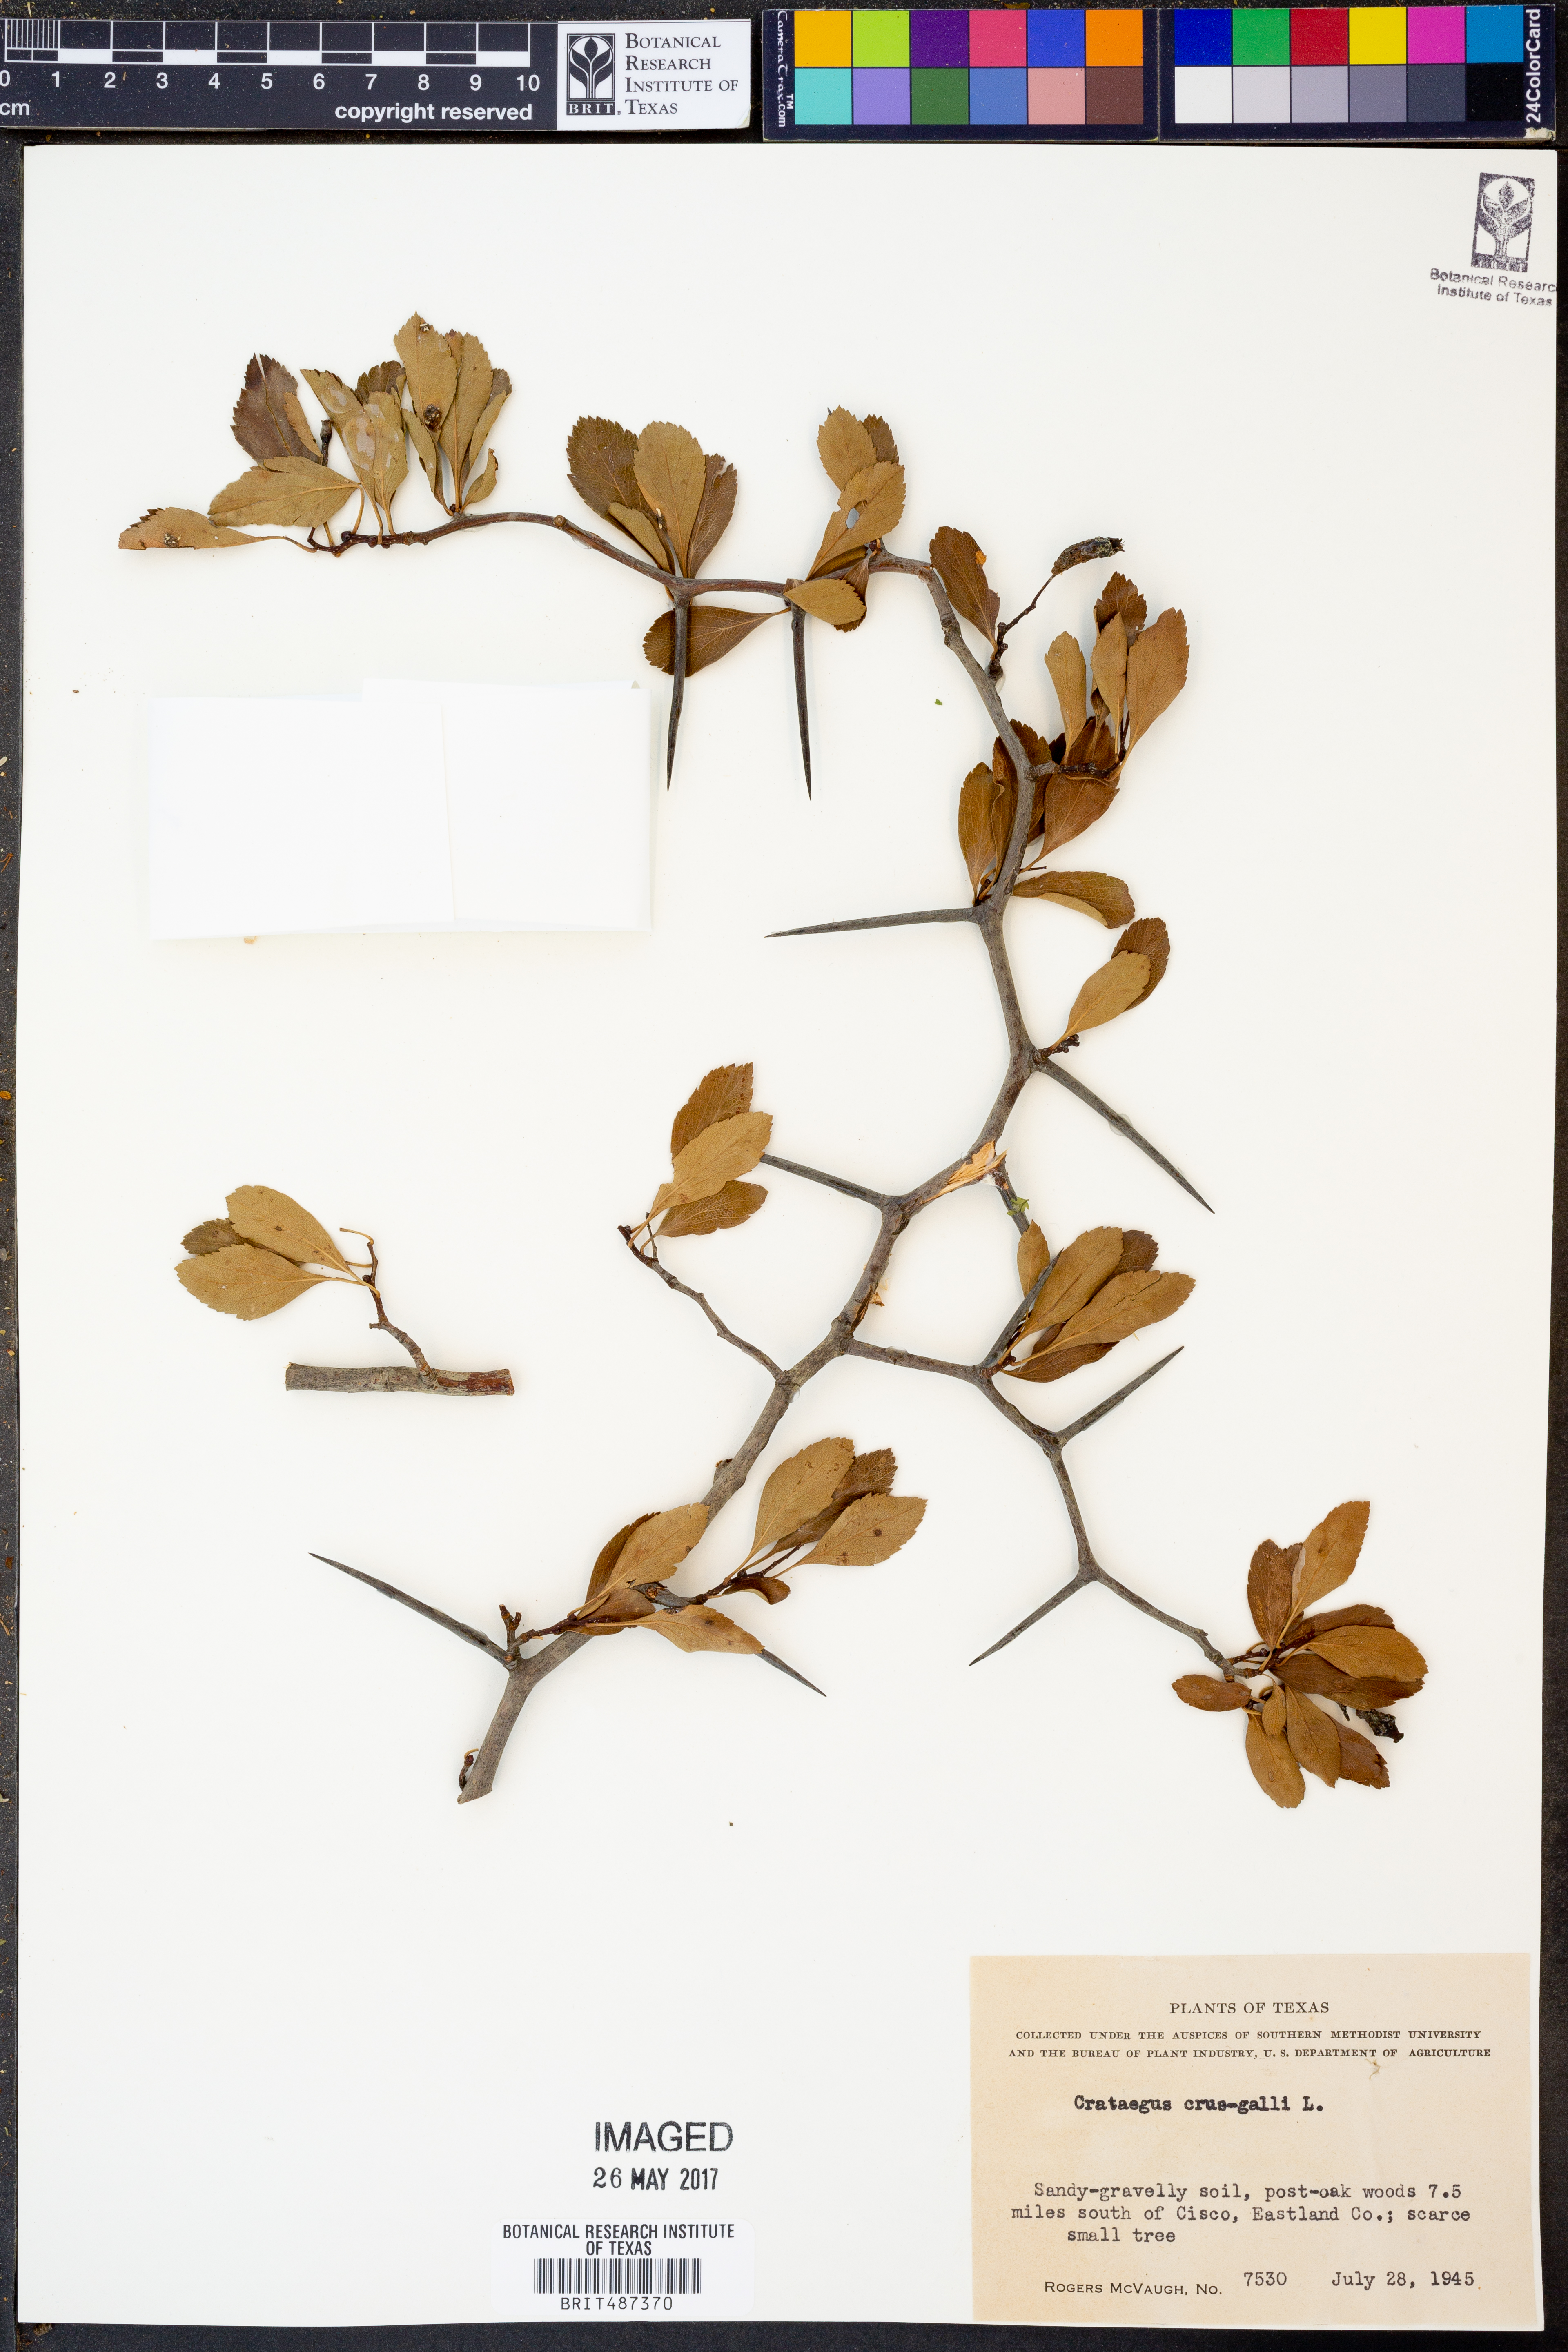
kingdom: Plantae
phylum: Tracheophyta
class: Magnoliopsida
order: Rosales
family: Rosaceae
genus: Crataegus
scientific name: Crataegus crus-galli
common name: Cockspurthorn
